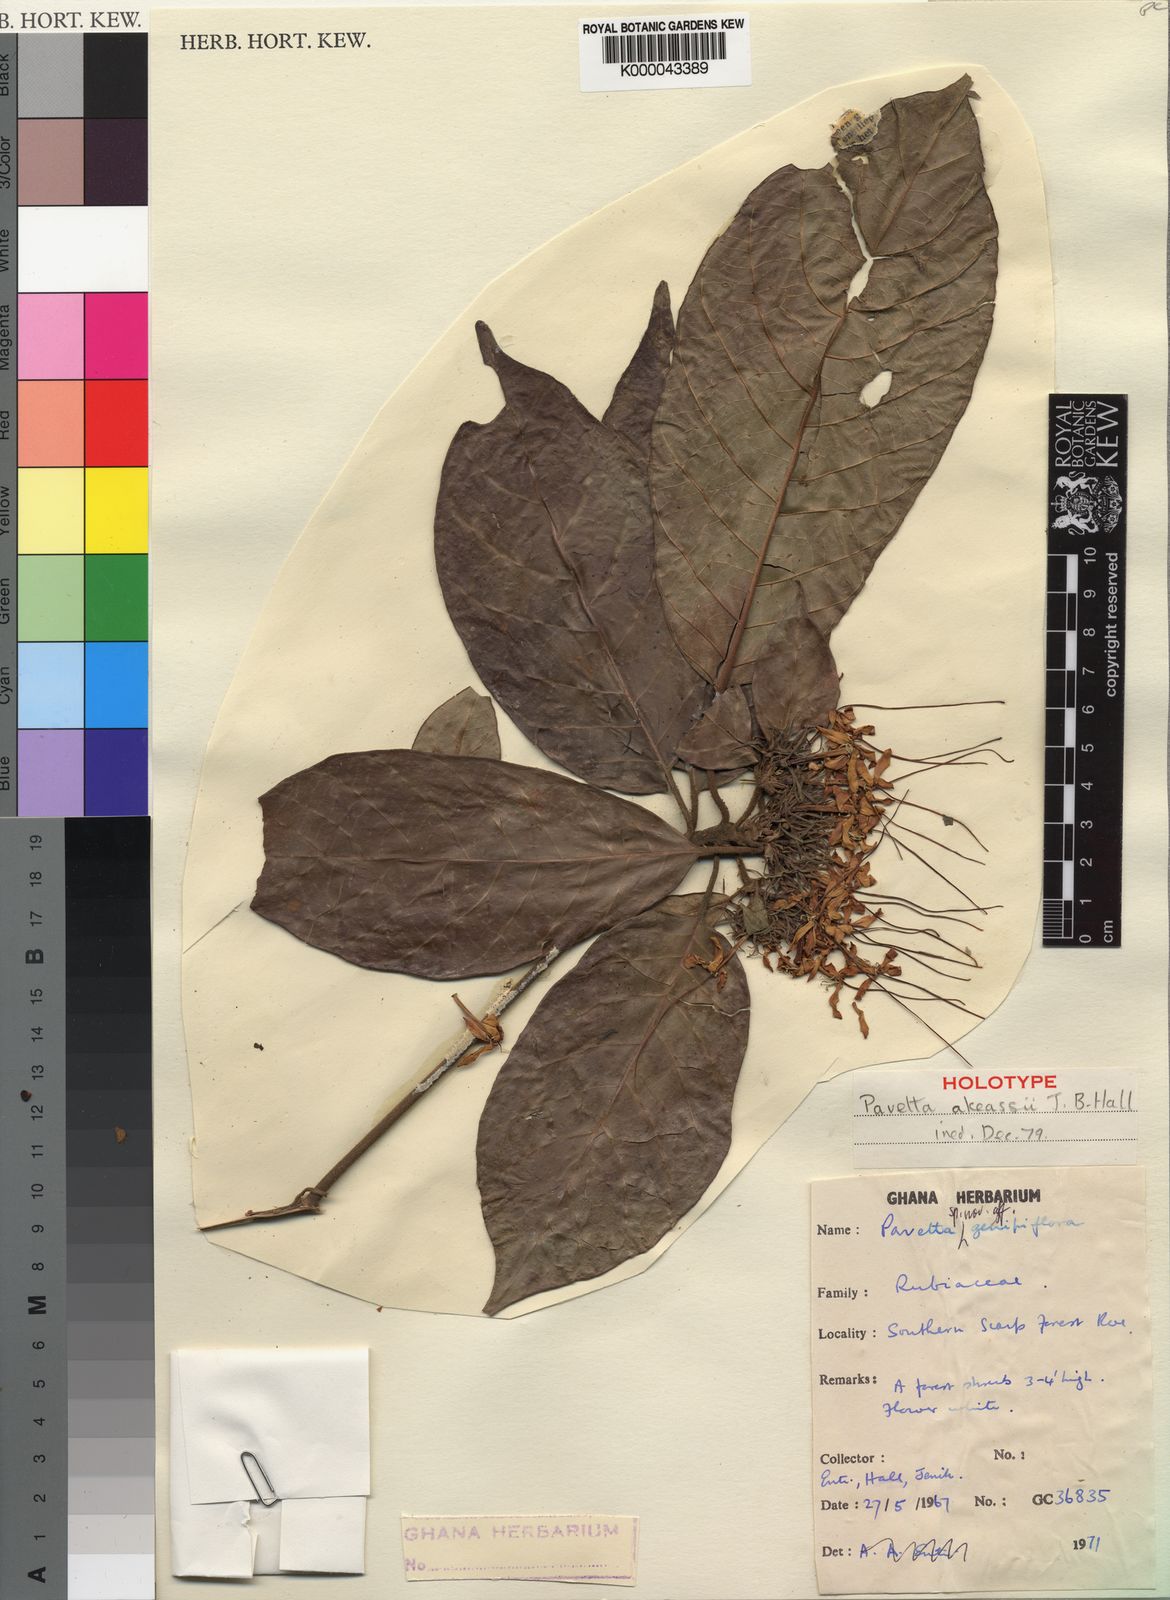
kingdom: Plantae
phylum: Tracheophyta
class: Magnoliopsida
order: Gentianales
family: Rubiaceae
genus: Pavetta
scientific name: Pavetta akeassii
